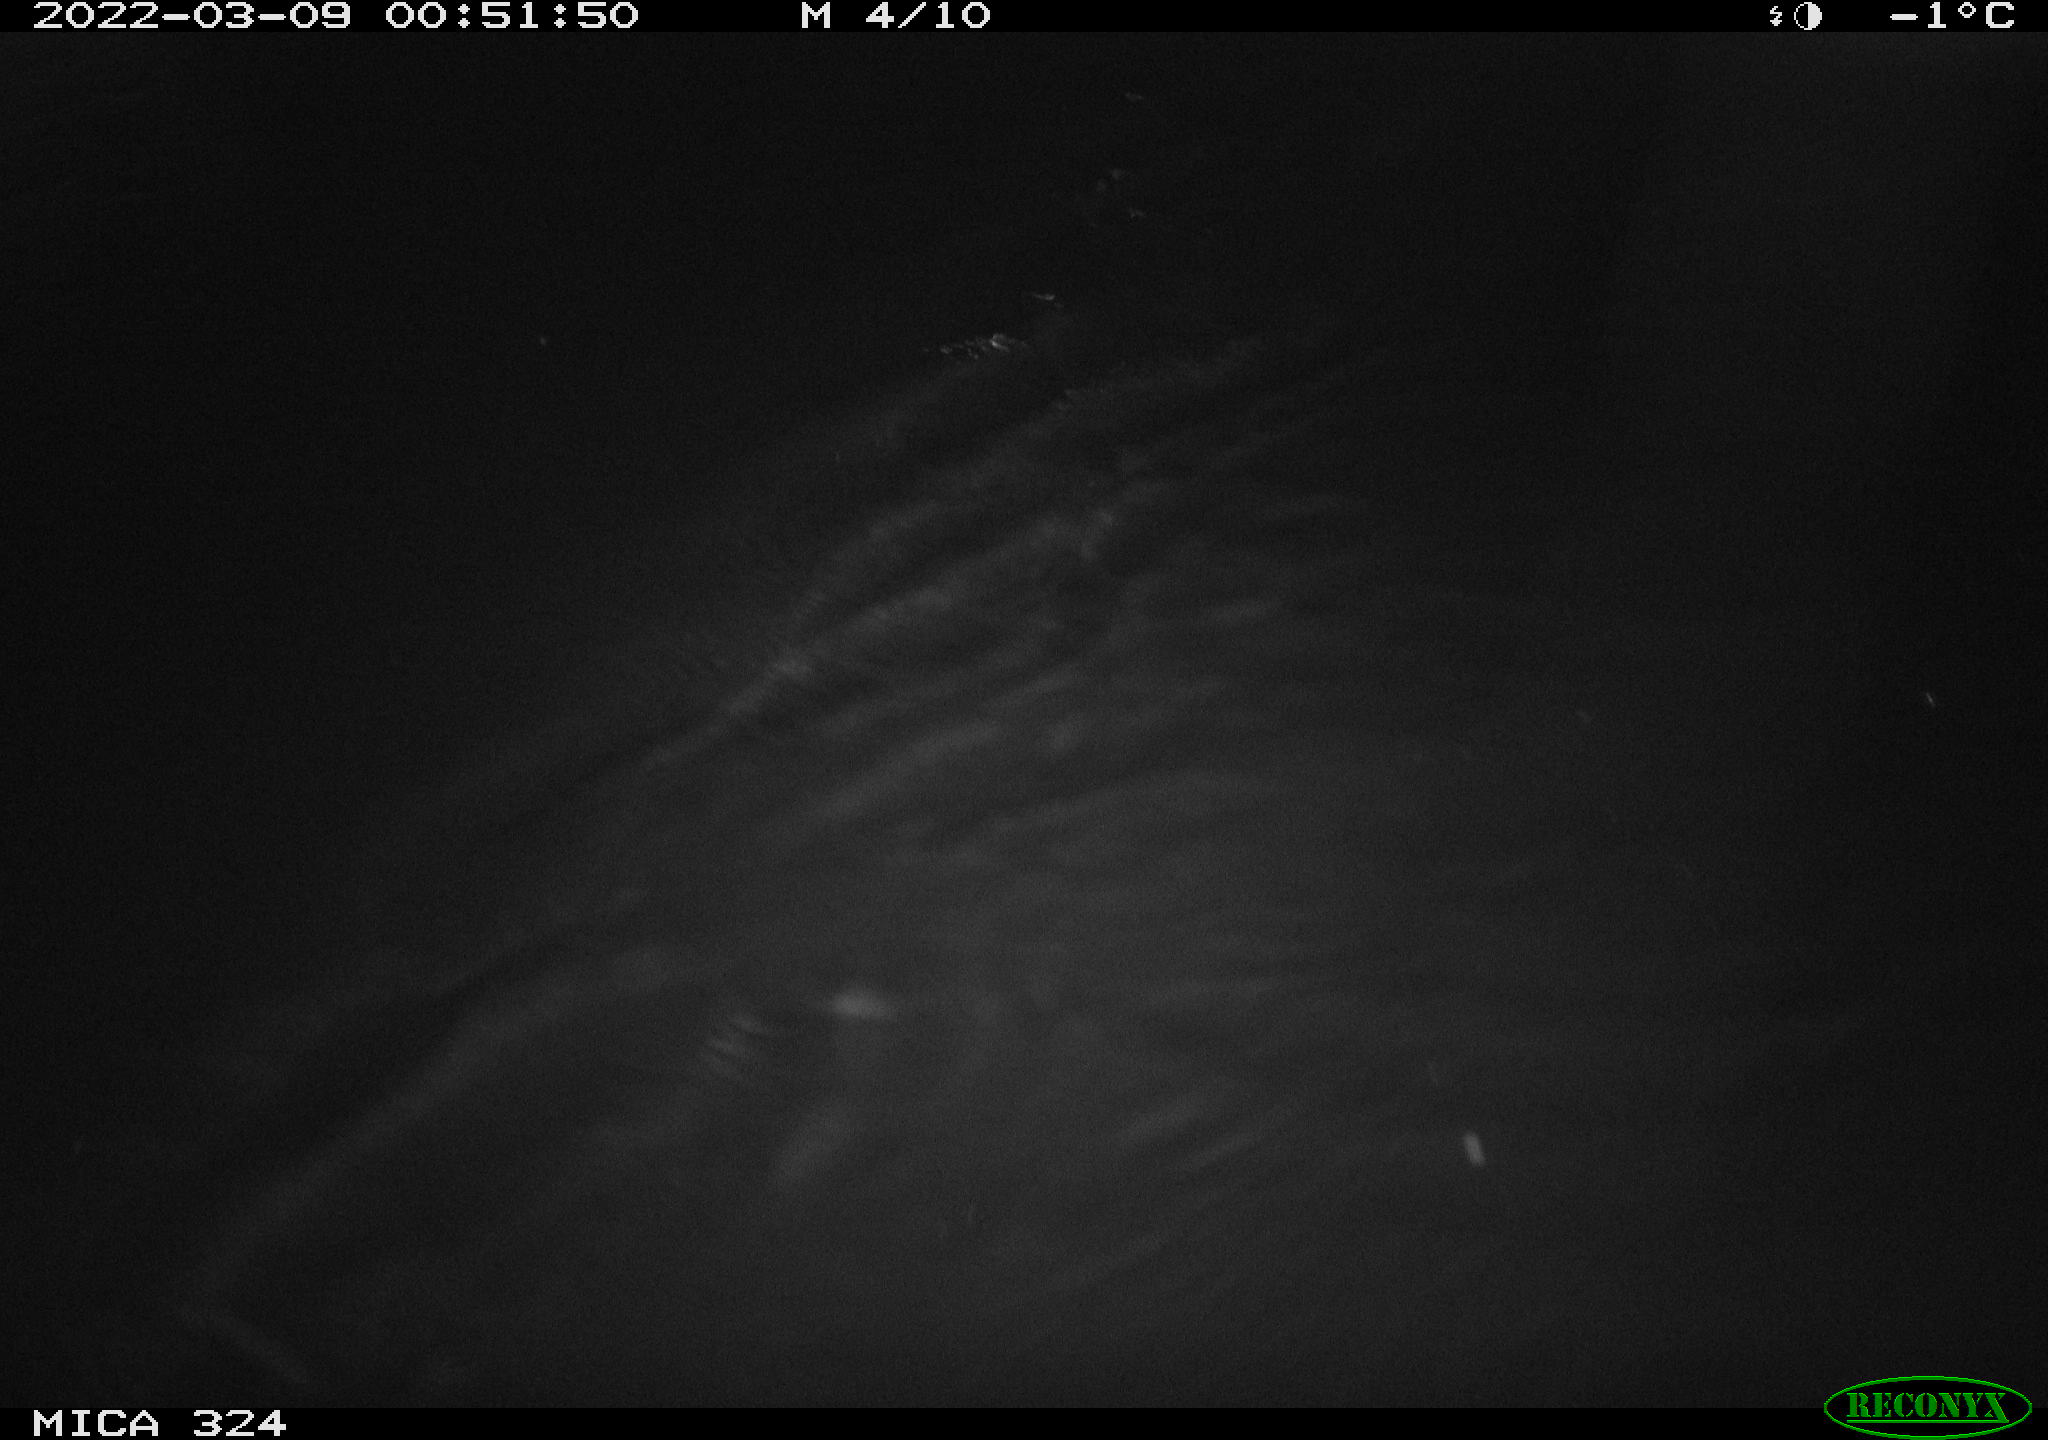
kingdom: Animalia
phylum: Chordata
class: Mammalia
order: Rodentia
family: Cricetidae
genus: Ondatra
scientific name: Ondatra zibethicus
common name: Muskrat
